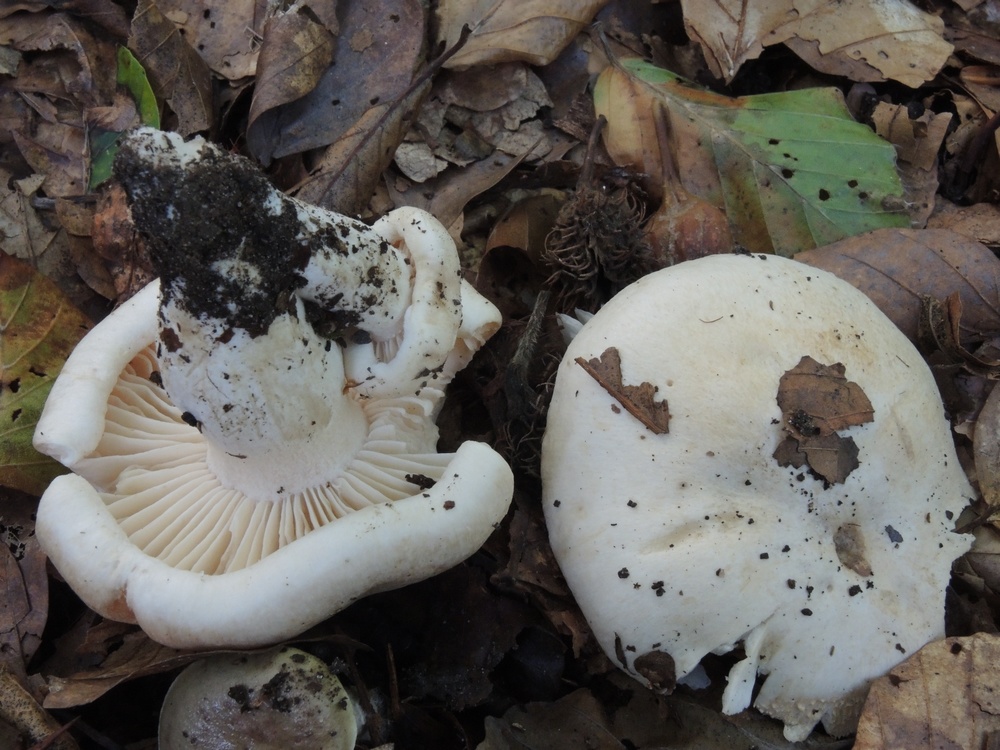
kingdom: Fungi
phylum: Basidiomycota
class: Agaricomycetes
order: Agaricales
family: Hygrophoraceae
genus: Hygrophorus
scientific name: Hygrophorus penarius
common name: spiselig sneglehat
